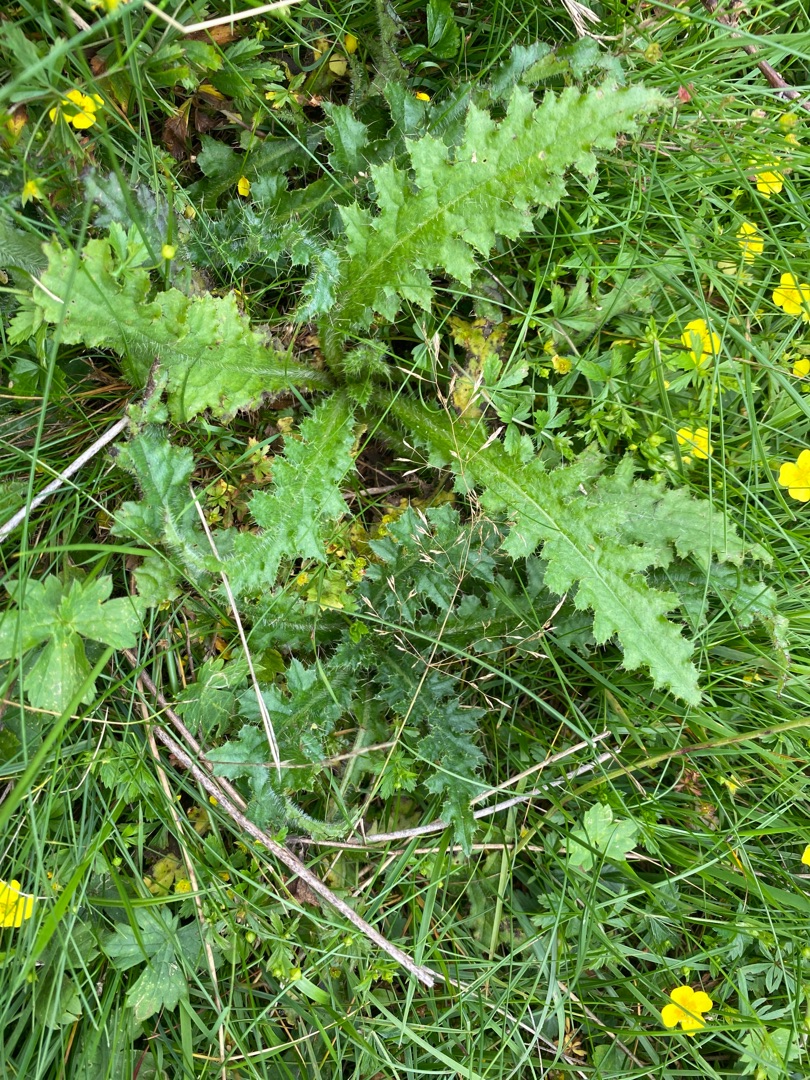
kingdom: Plantae
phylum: Tracheophyta
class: Magnoliopsida
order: Asterales
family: Asteraceae
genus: Cirsium
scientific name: Cirsium palustre
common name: Kær-tidsel
